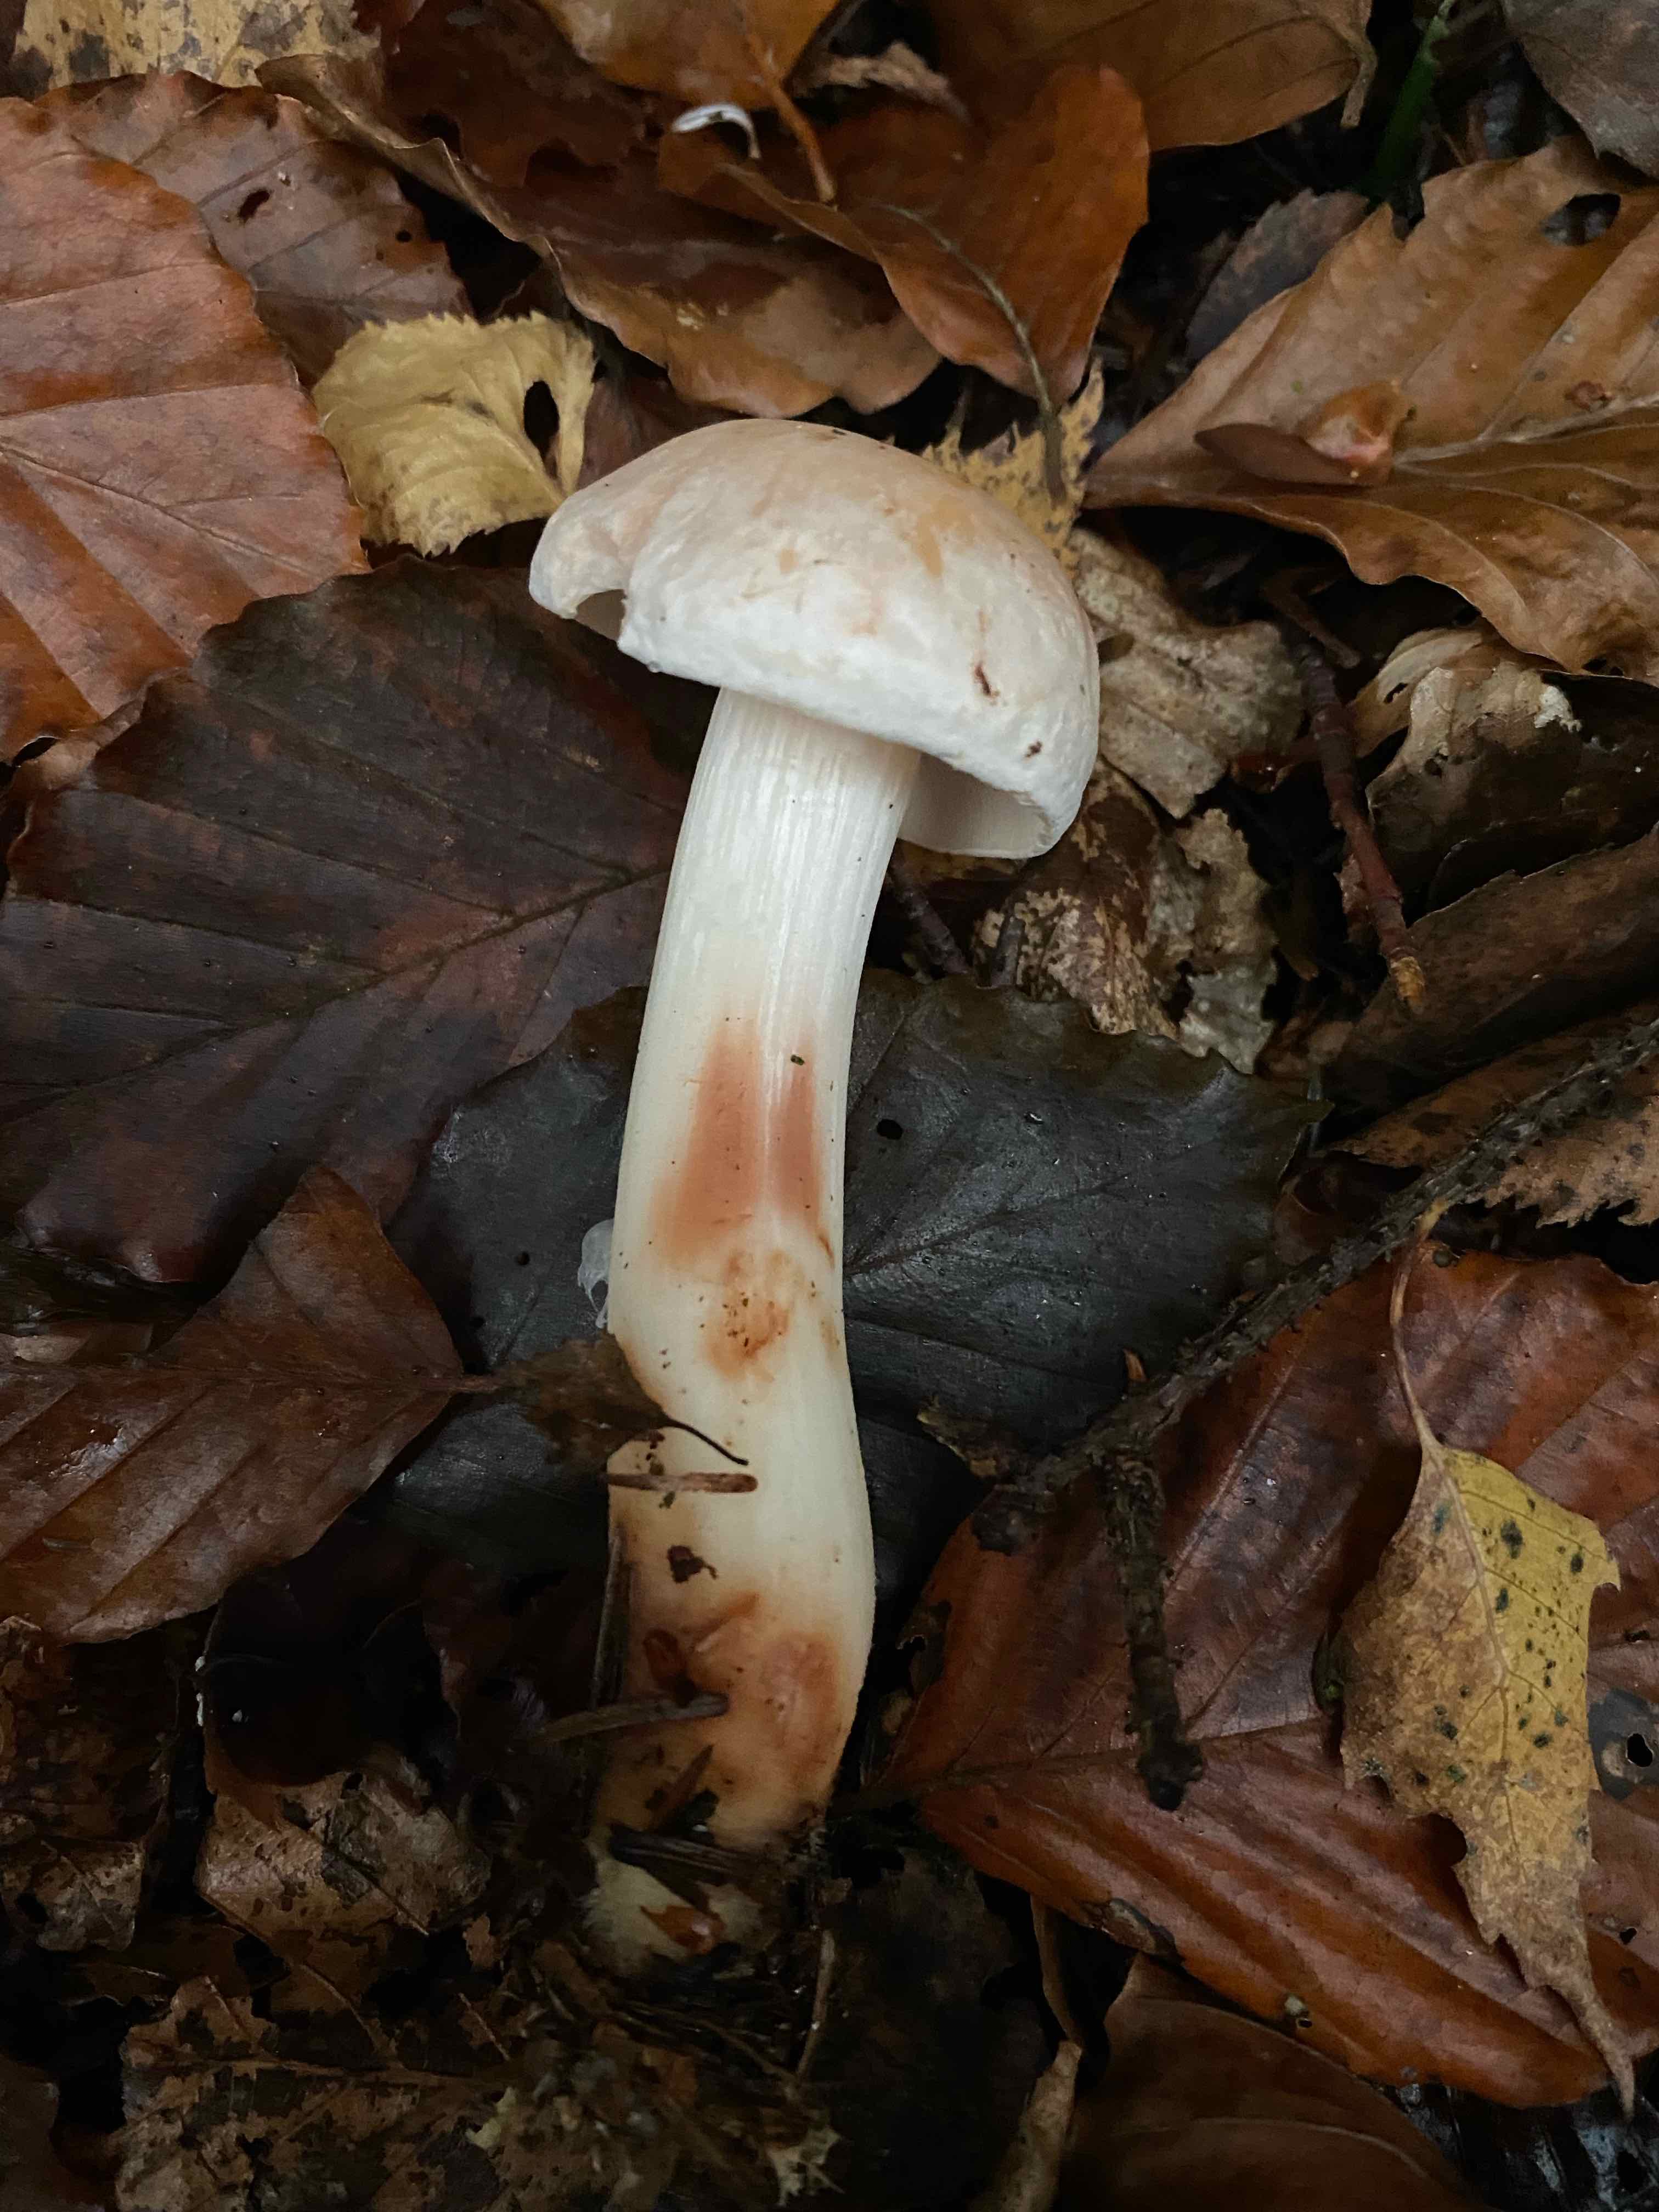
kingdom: Fungi
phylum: Basidiomycota
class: Agaricomycetes
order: Agaricales
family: Omphalotaceae
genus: Rhodocollybia
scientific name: Rhodocollybia maculata
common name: plettet fladhat
